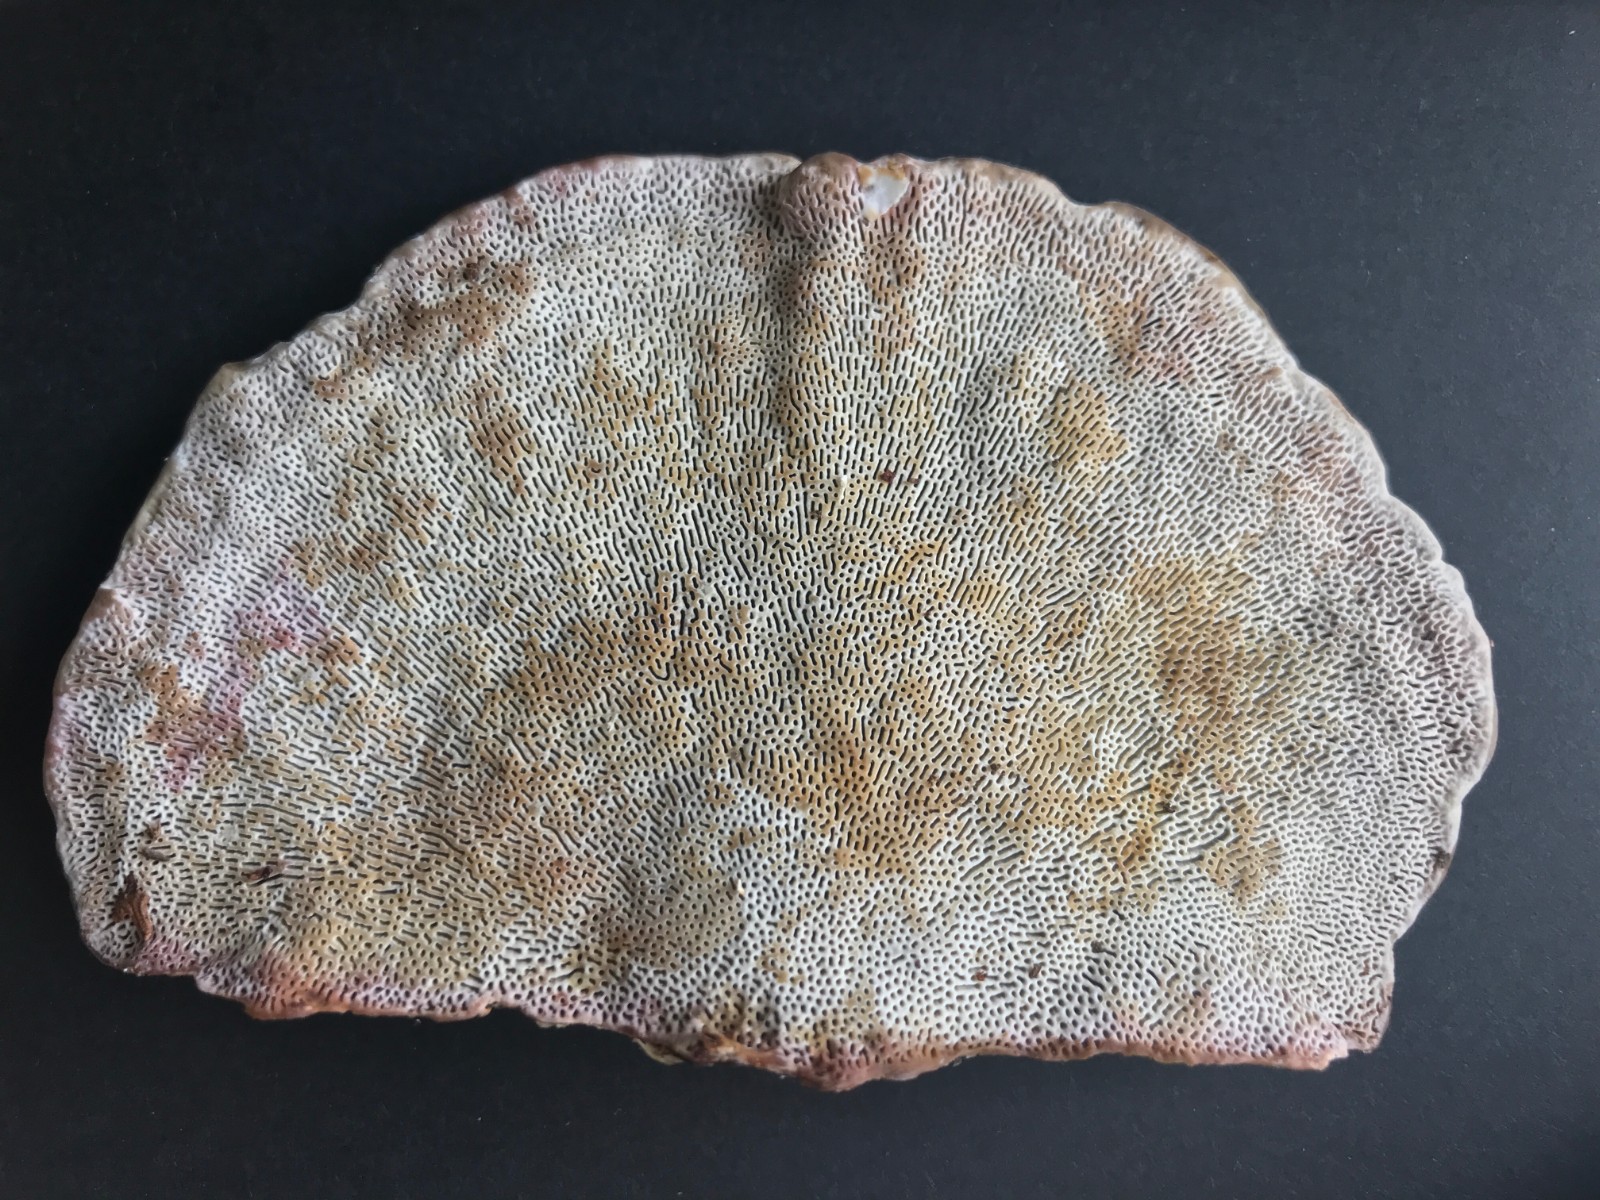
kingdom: Fungi
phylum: Basidiomycota
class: Agaricomycetes
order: Polyporales
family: Polyporaceae
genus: Daedaleopsis
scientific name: Daedaleopsis confragosa
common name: rødmende læderporesvamp
